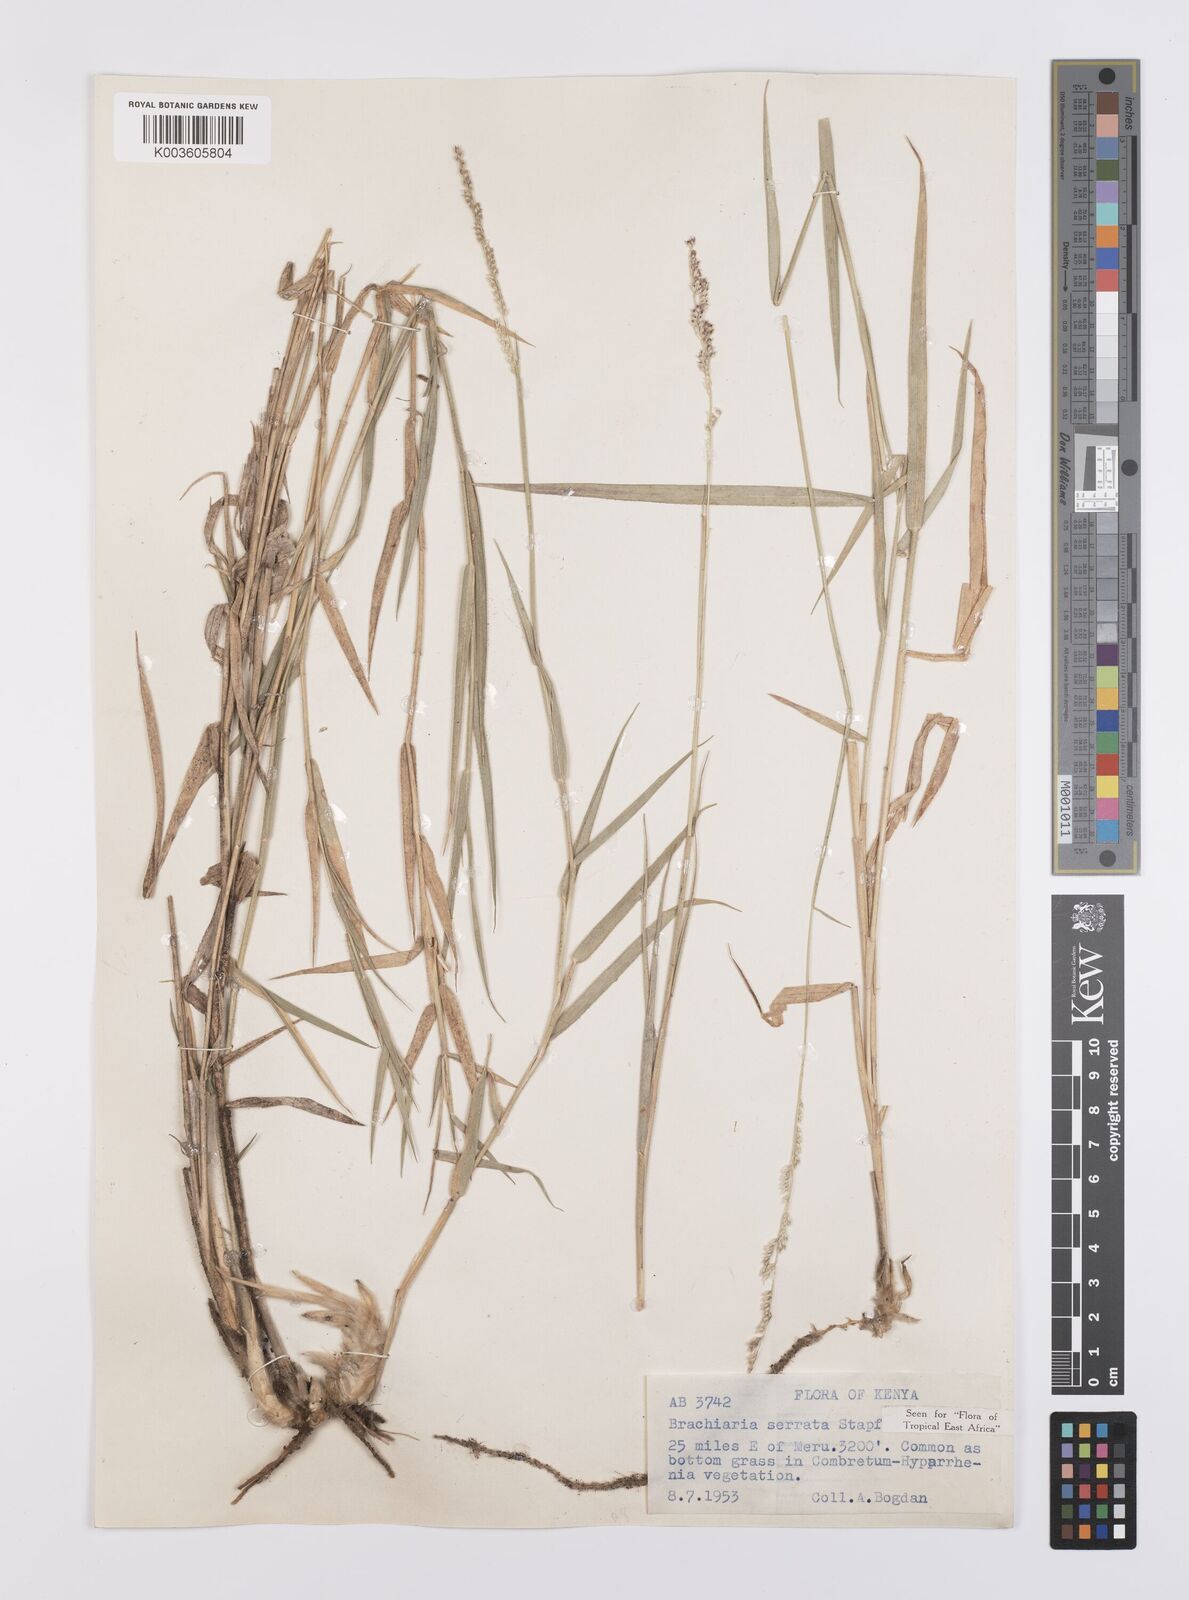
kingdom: Plantae
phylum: Tracheophyta
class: Liliopsida
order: Poales
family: Poaceae
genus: Urochloa
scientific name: Urochloa serrata
